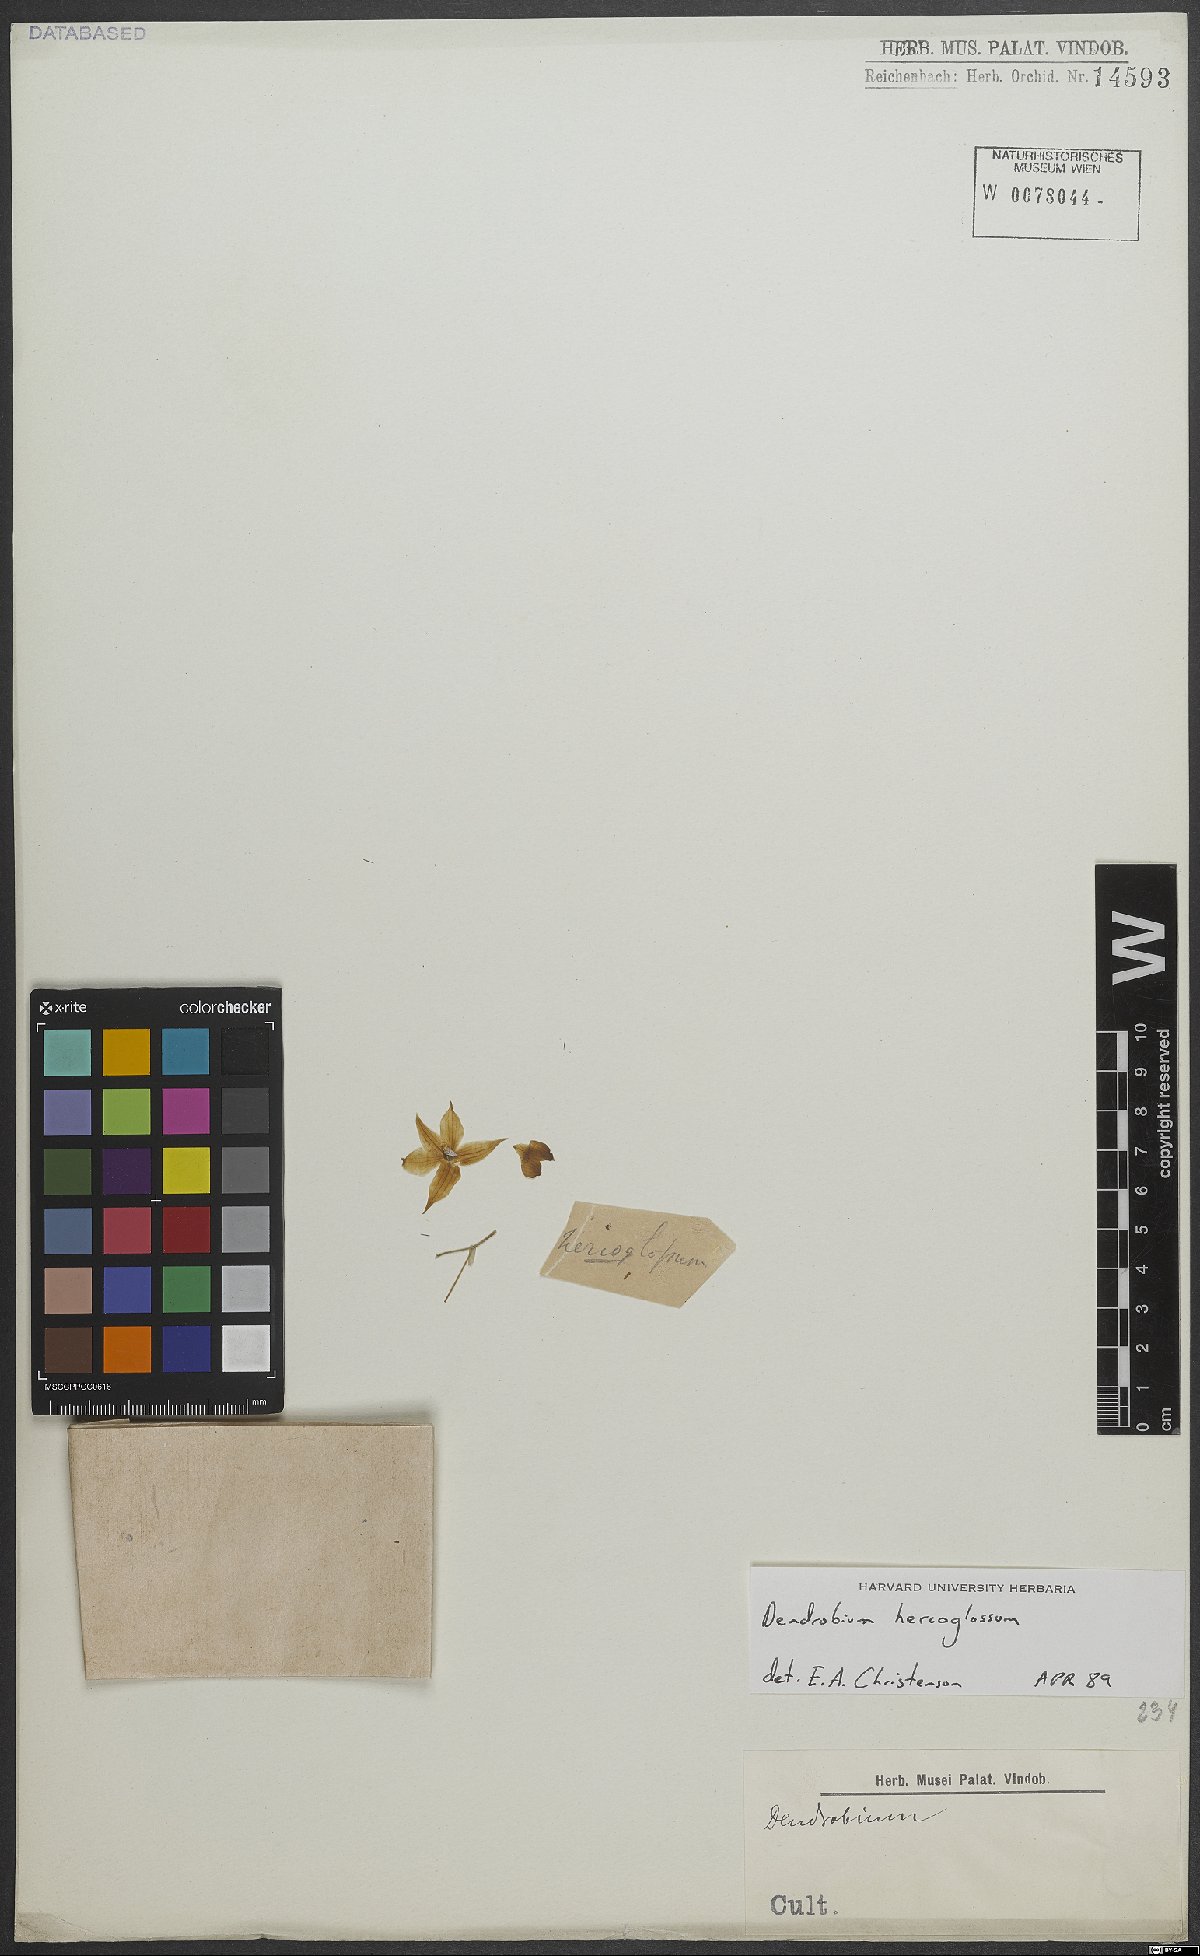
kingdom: Plantae
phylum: Tracheophyta
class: Liliopsida
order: Asparagales
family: Orchidaceae
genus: Dendrobium
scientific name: Dendrobium hercoglossum
